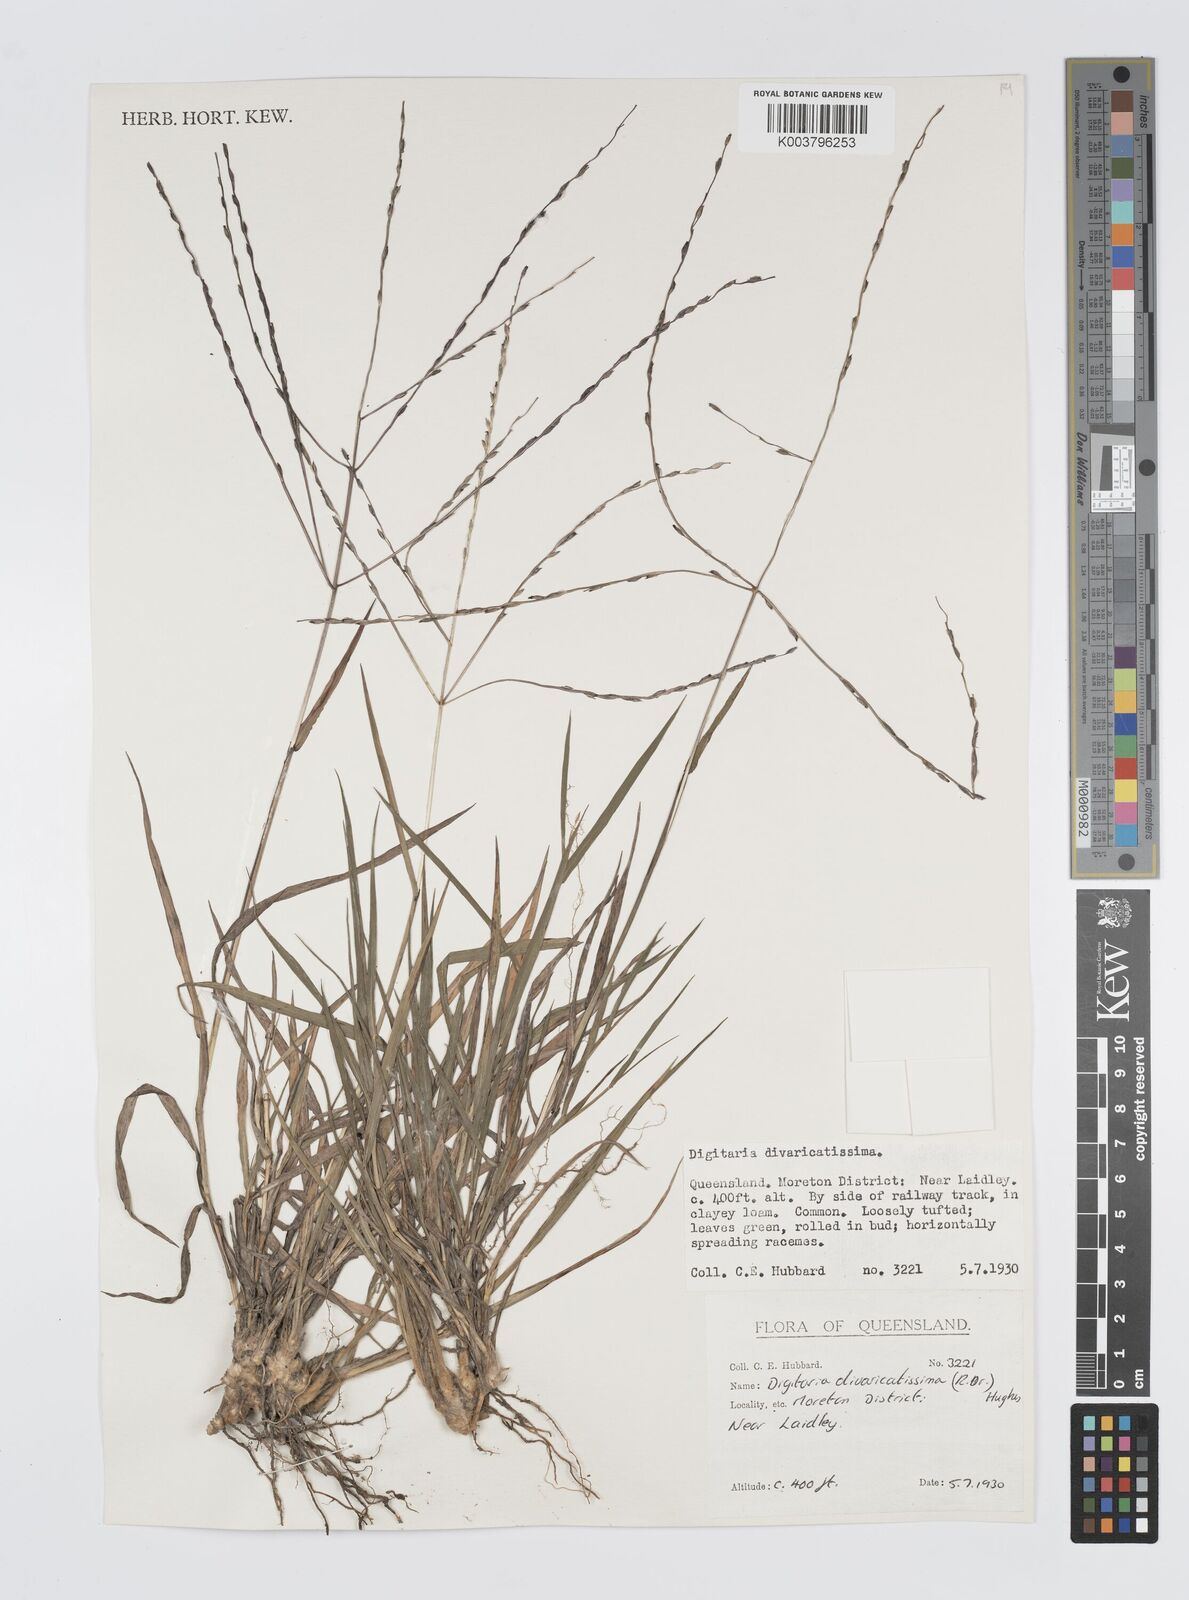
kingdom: Plantae
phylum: Tracheophyta
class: Liliopsida
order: Poales
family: Poaceae
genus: Digitaria
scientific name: Digitaria divaricatissima
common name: Crabgrass
